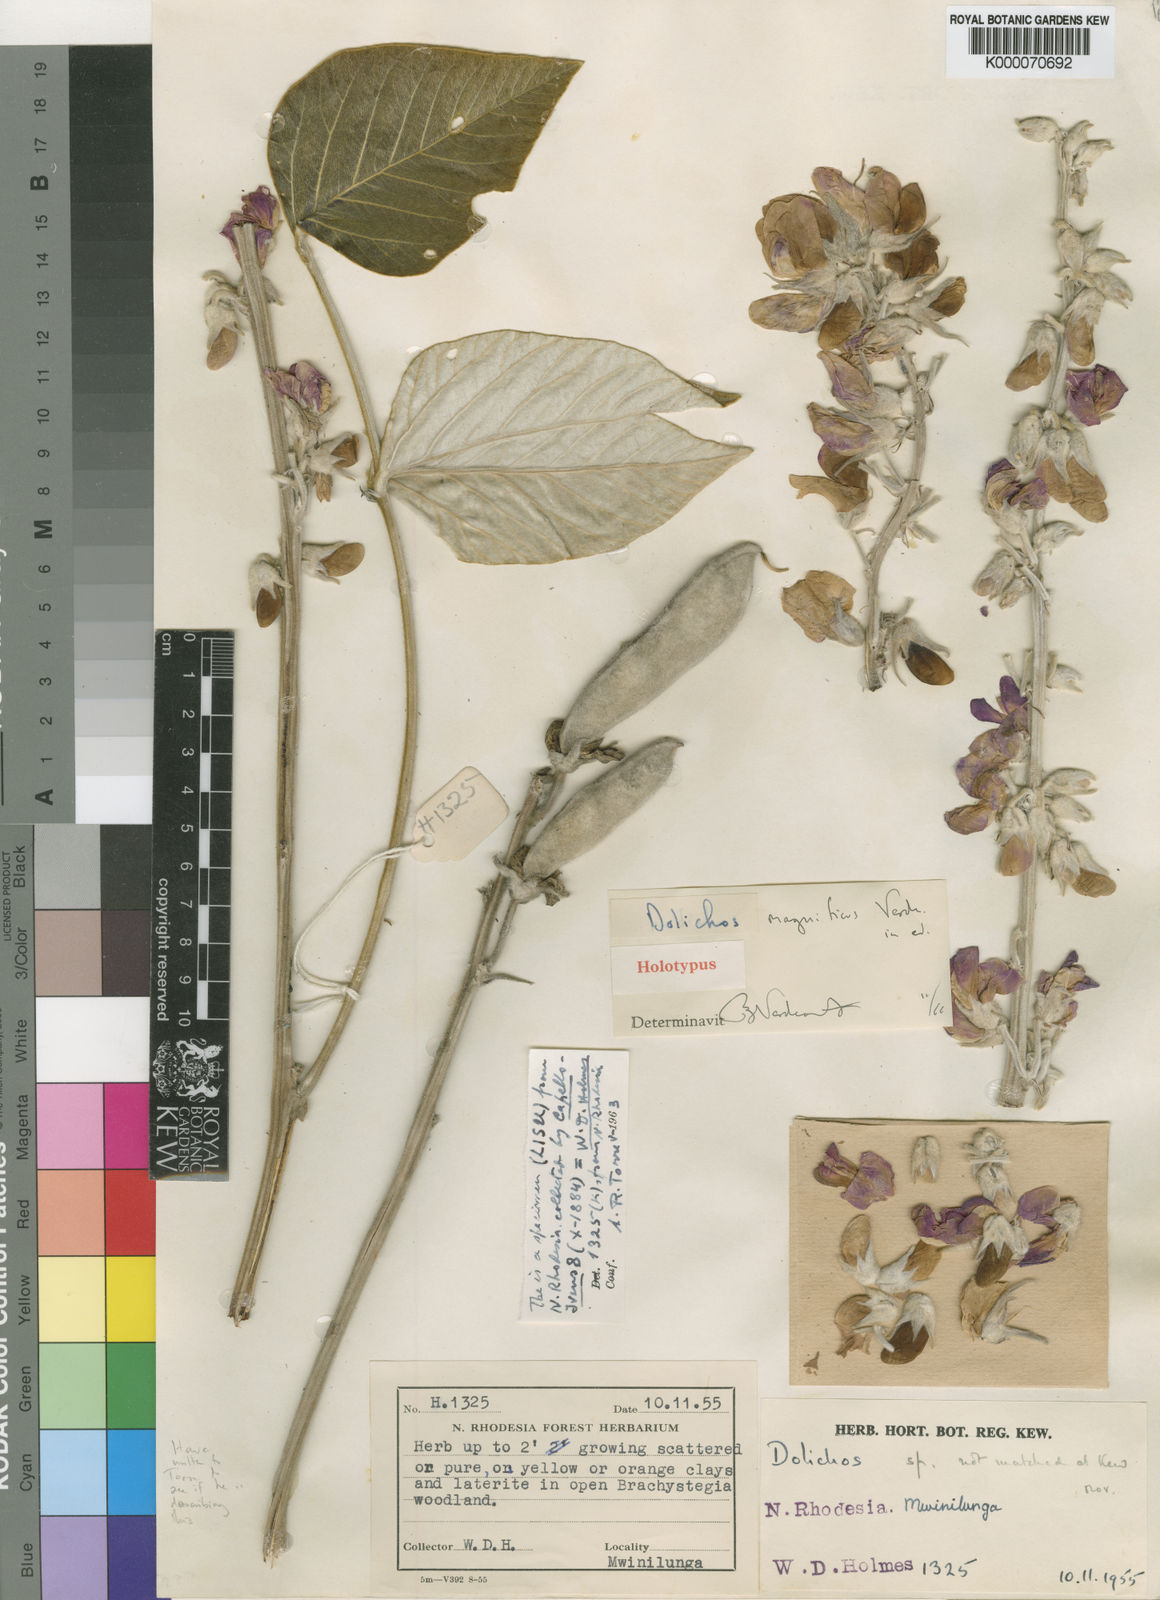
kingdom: Plantae
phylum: Tracheophyta
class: Magnoliopsida
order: Fabales
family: Fabaceae
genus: Dolichos
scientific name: Dolichos magnificus
